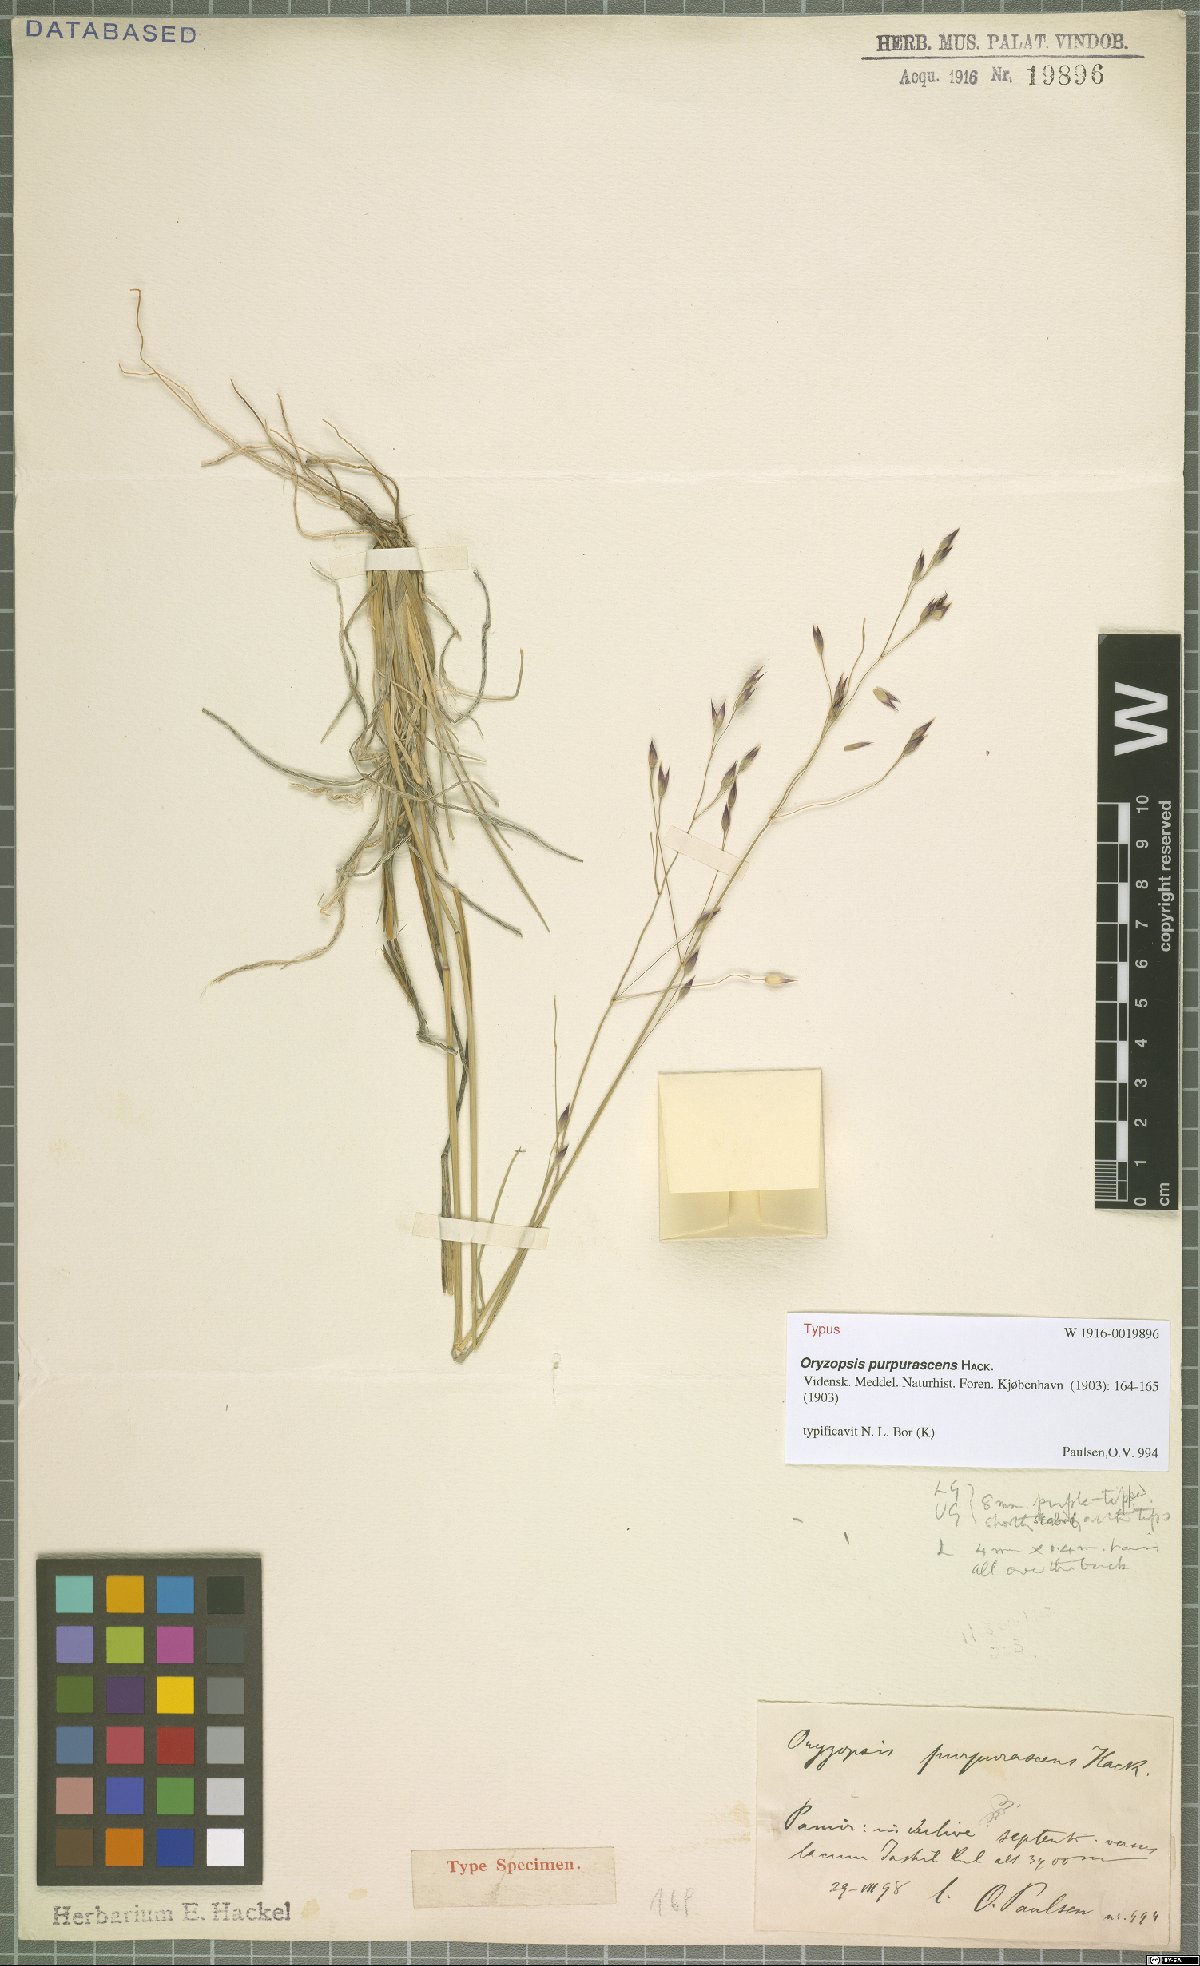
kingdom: Plantae
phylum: Tracheophyta
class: Liliopsida
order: Poales
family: Poaceae
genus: Oryzopsis
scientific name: Oryzopsis purpurascens
